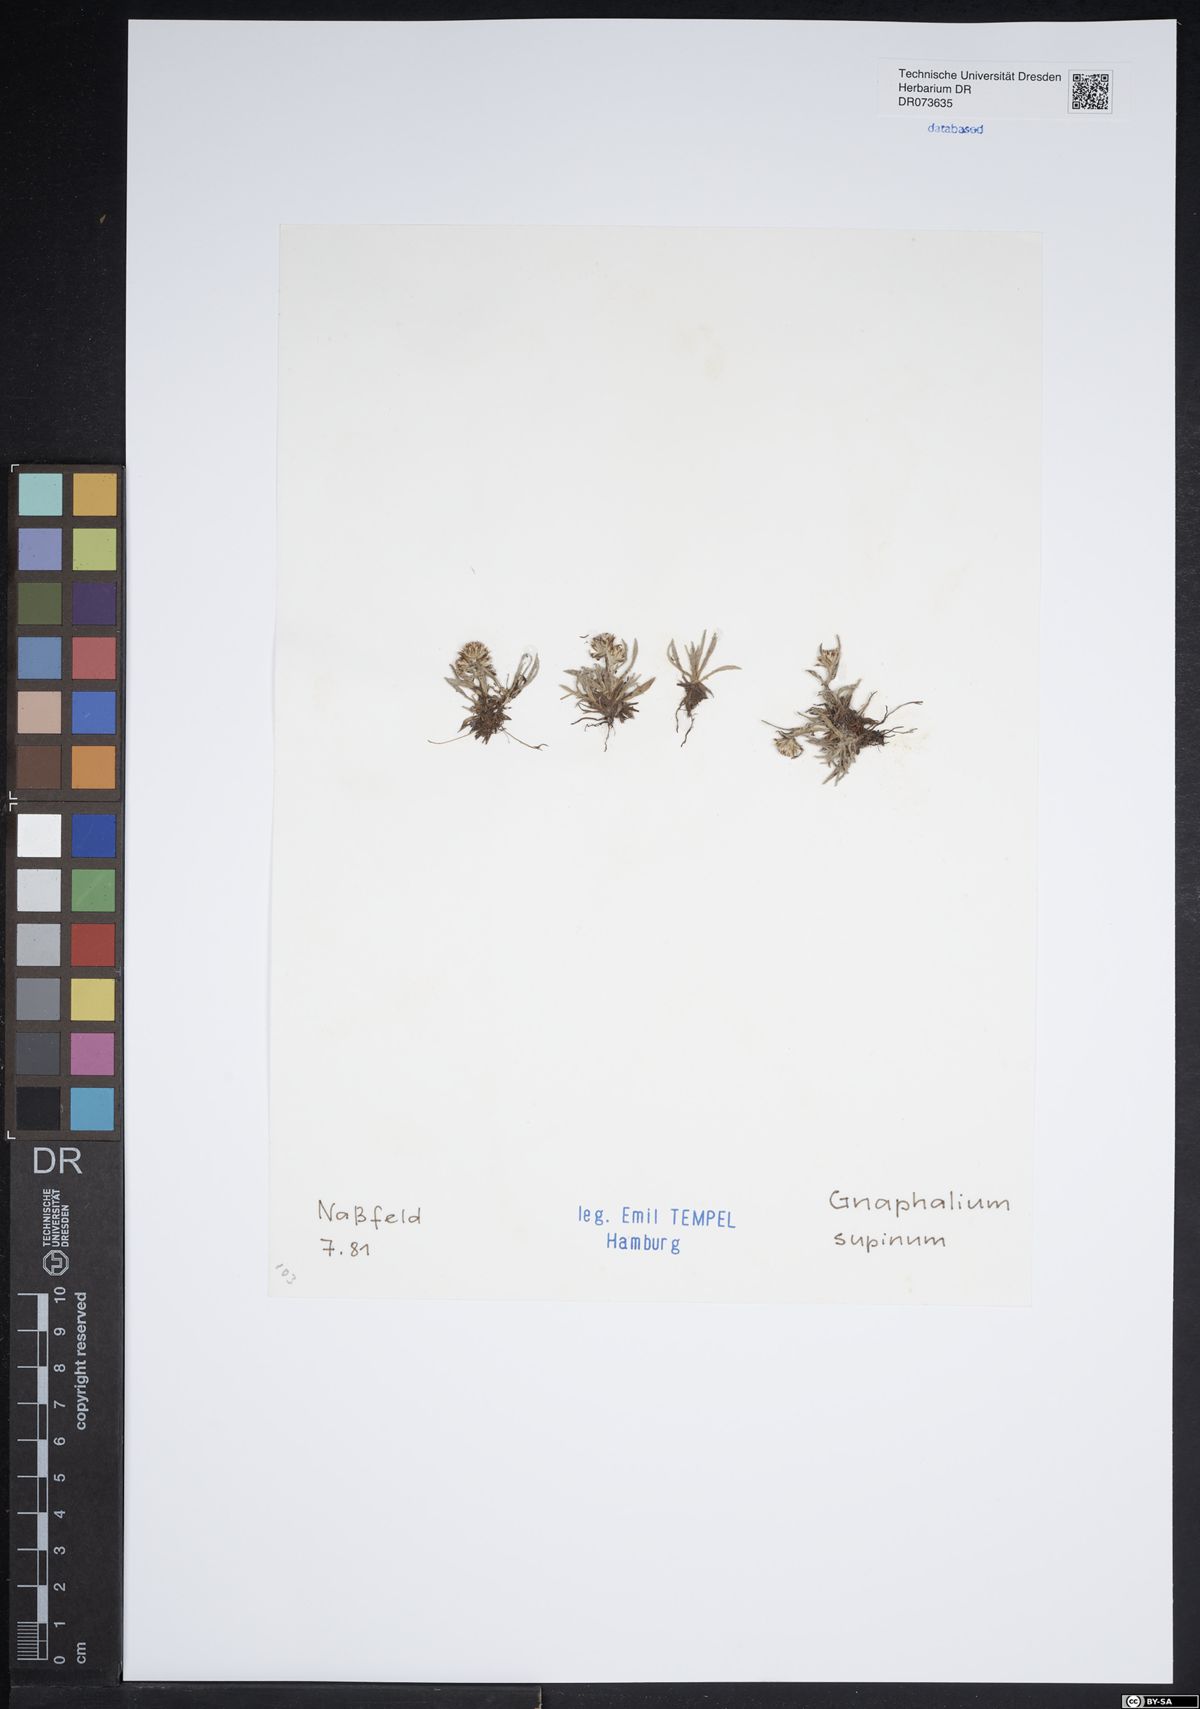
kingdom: Plantae
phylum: Tracheophyta
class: Magnoliopsida
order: Asterales
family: Asteraceae
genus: Omalotheca
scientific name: Omalotheca supina
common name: Alpine arctic-cudweed
